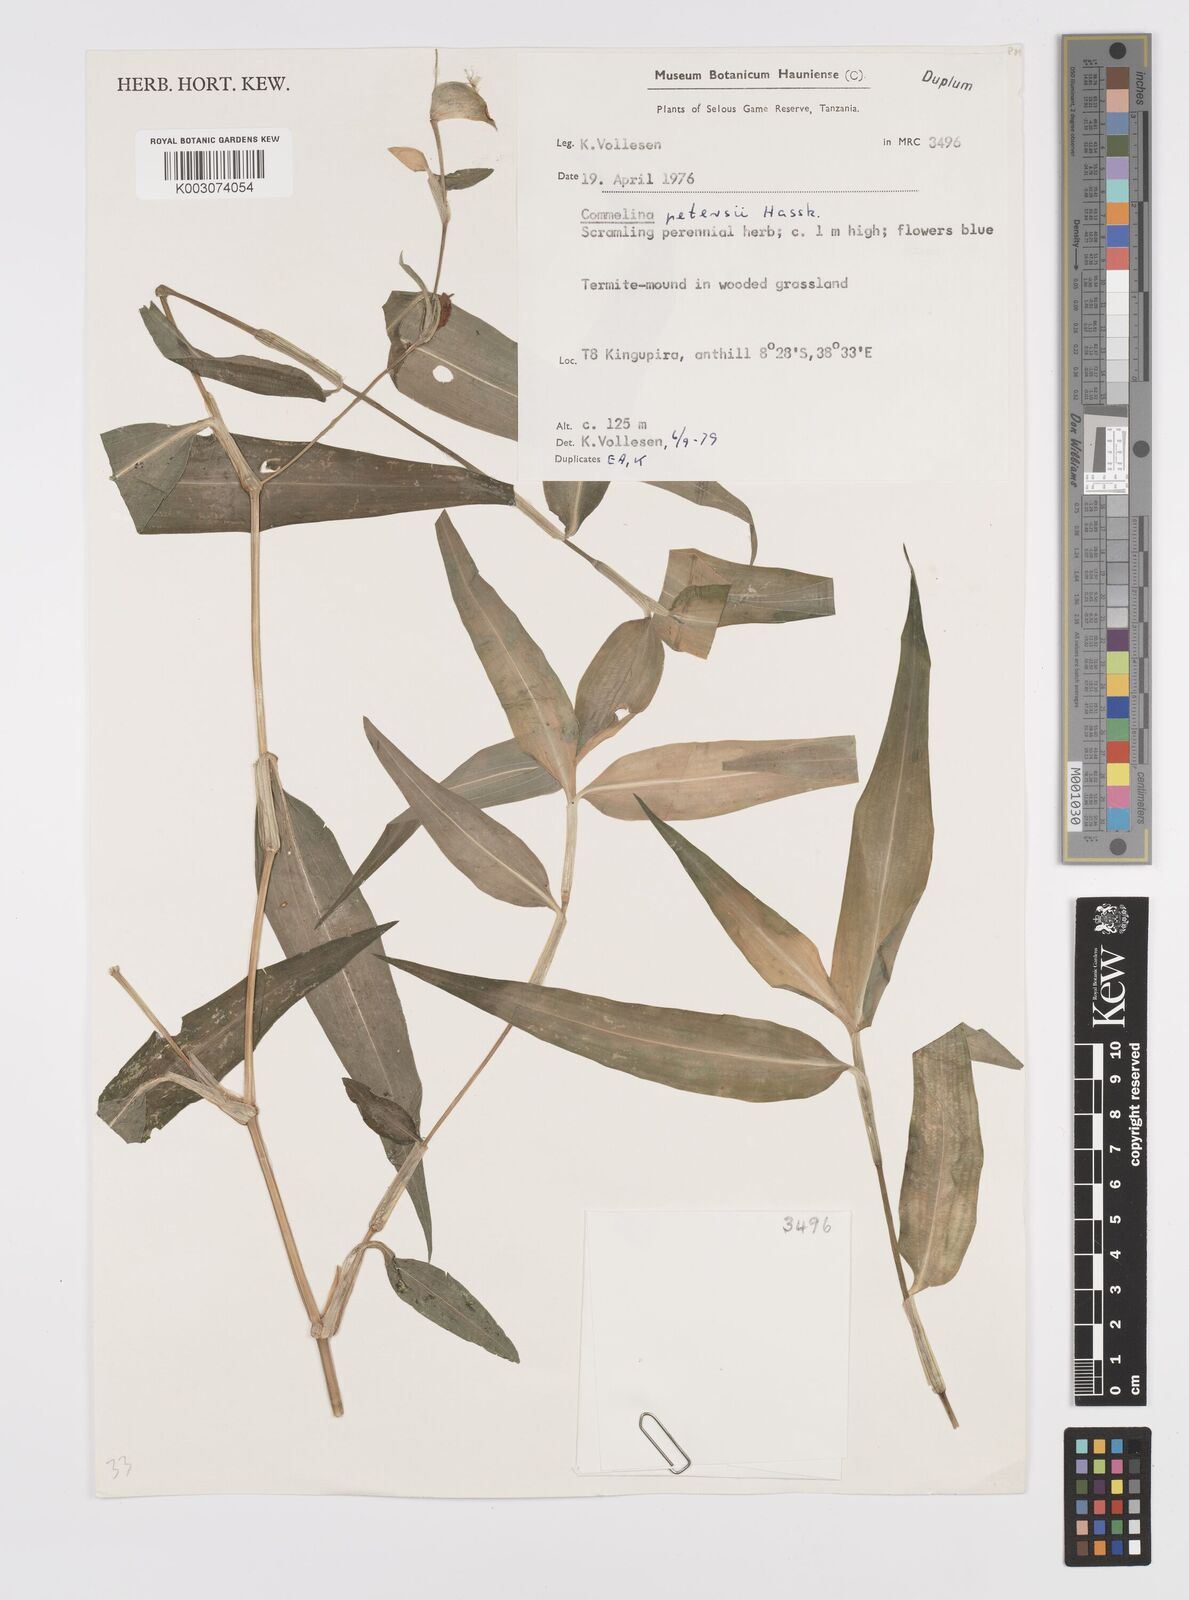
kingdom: Plantae
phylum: Tracheophyta
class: Liliopsida
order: Commelinales
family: Commelinaceae
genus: Commelina
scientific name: Commelina petersii
